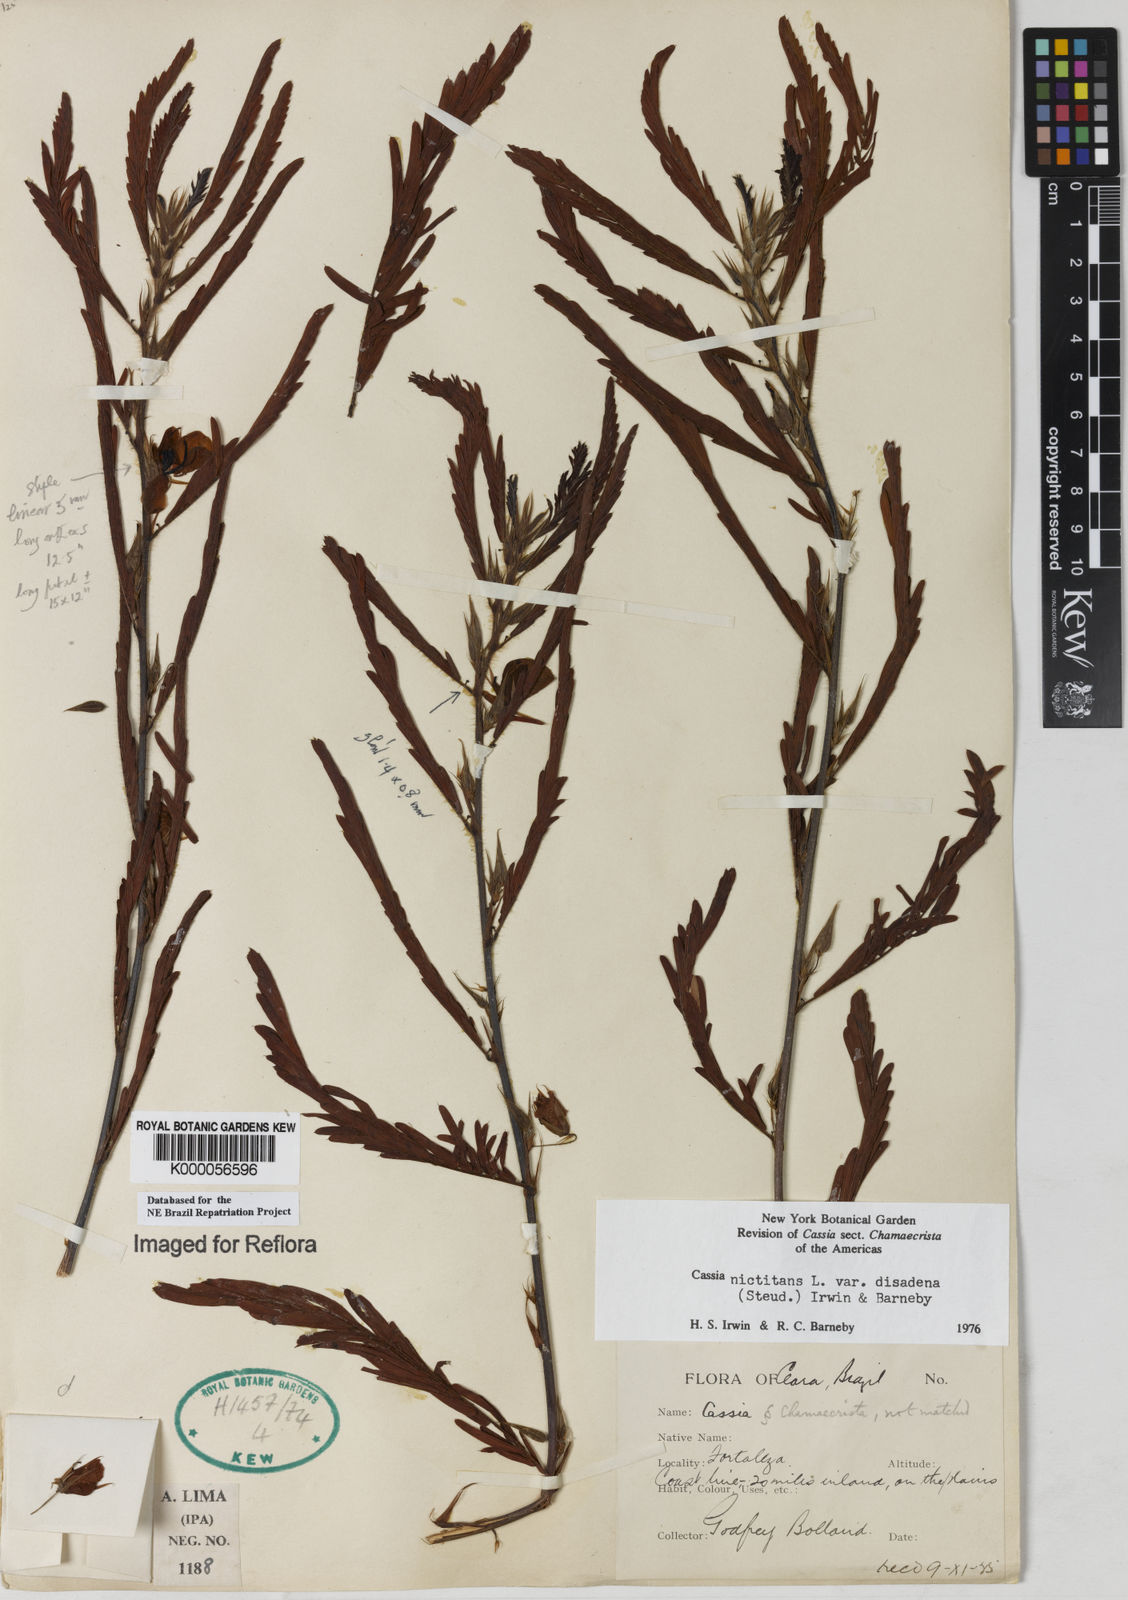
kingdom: Plantae
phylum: Tracheophyta
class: Magnoliopsida
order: Fabales
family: Fabaceae
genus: Chamaecrista
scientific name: Chamaecrista nictitans
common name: Sensitive cassia
